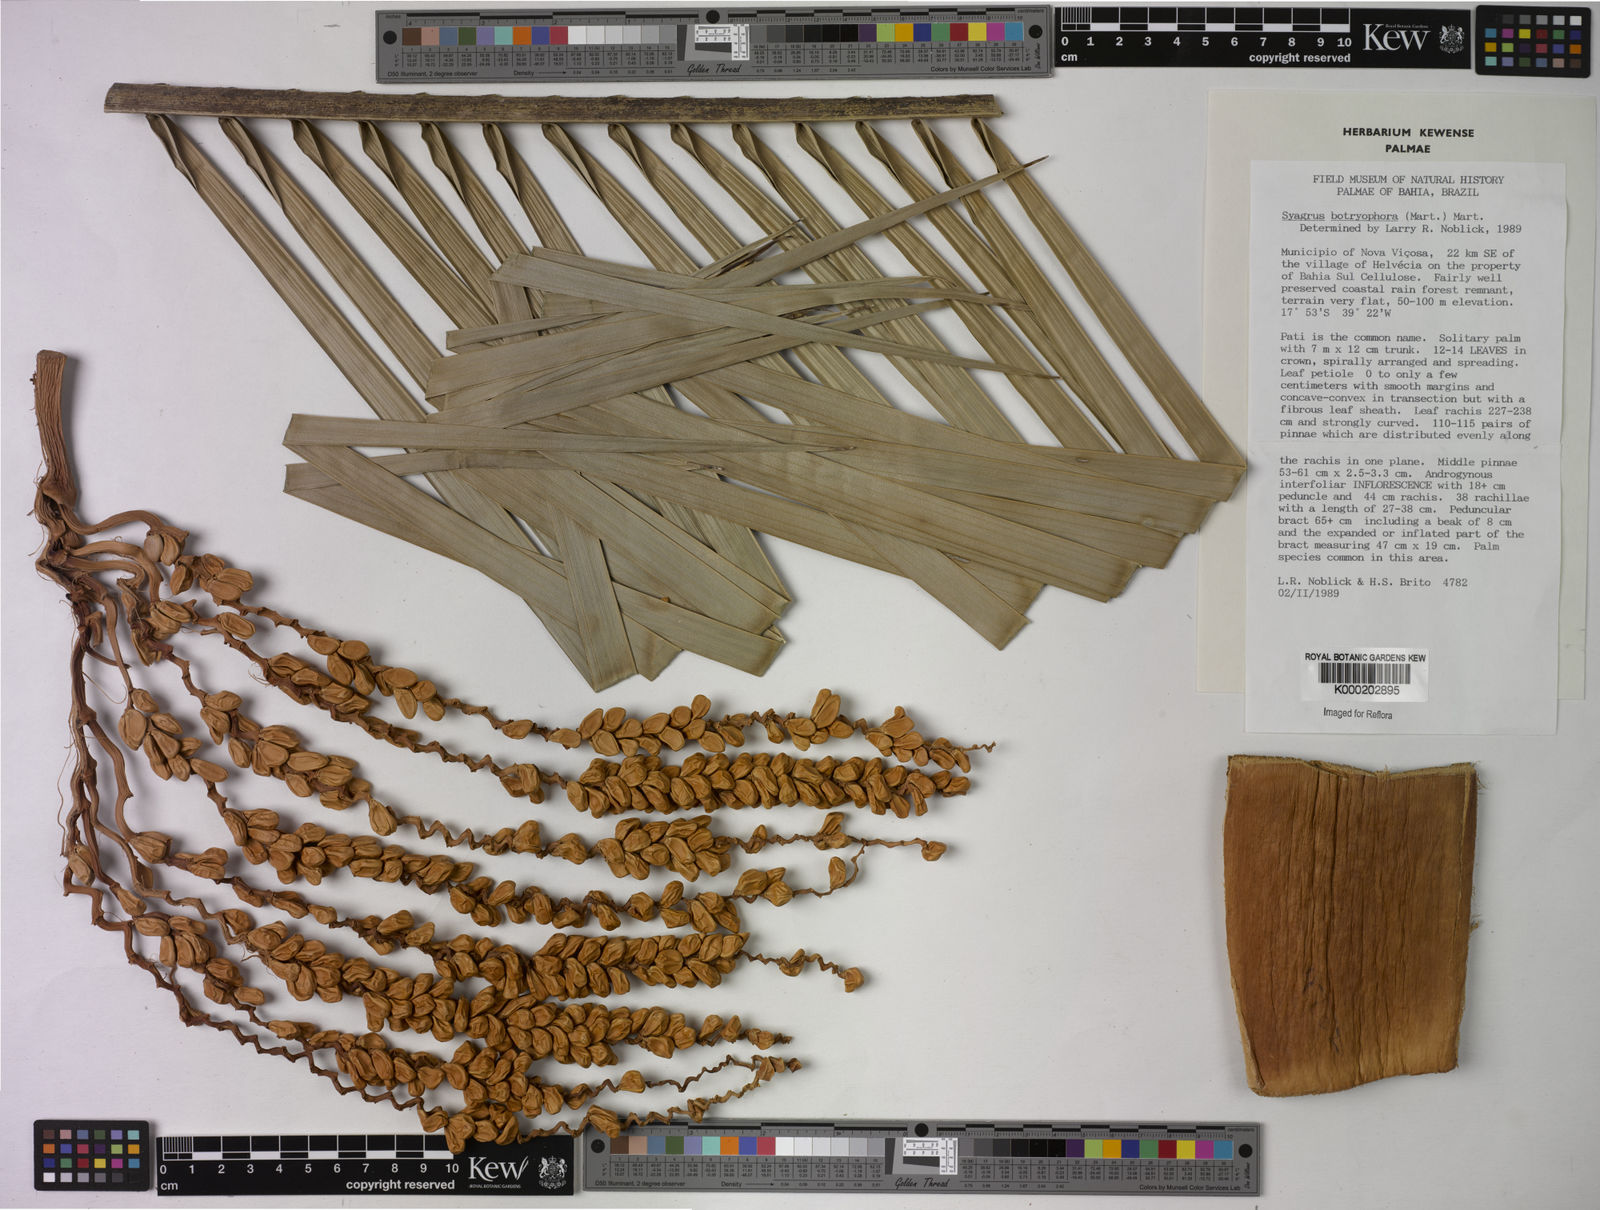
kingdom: Plantae
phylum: Tracheophyta
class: Liliopsida
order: Arecales
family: Arecaceae
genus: Syagrus
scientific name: Syagrus botryophora
